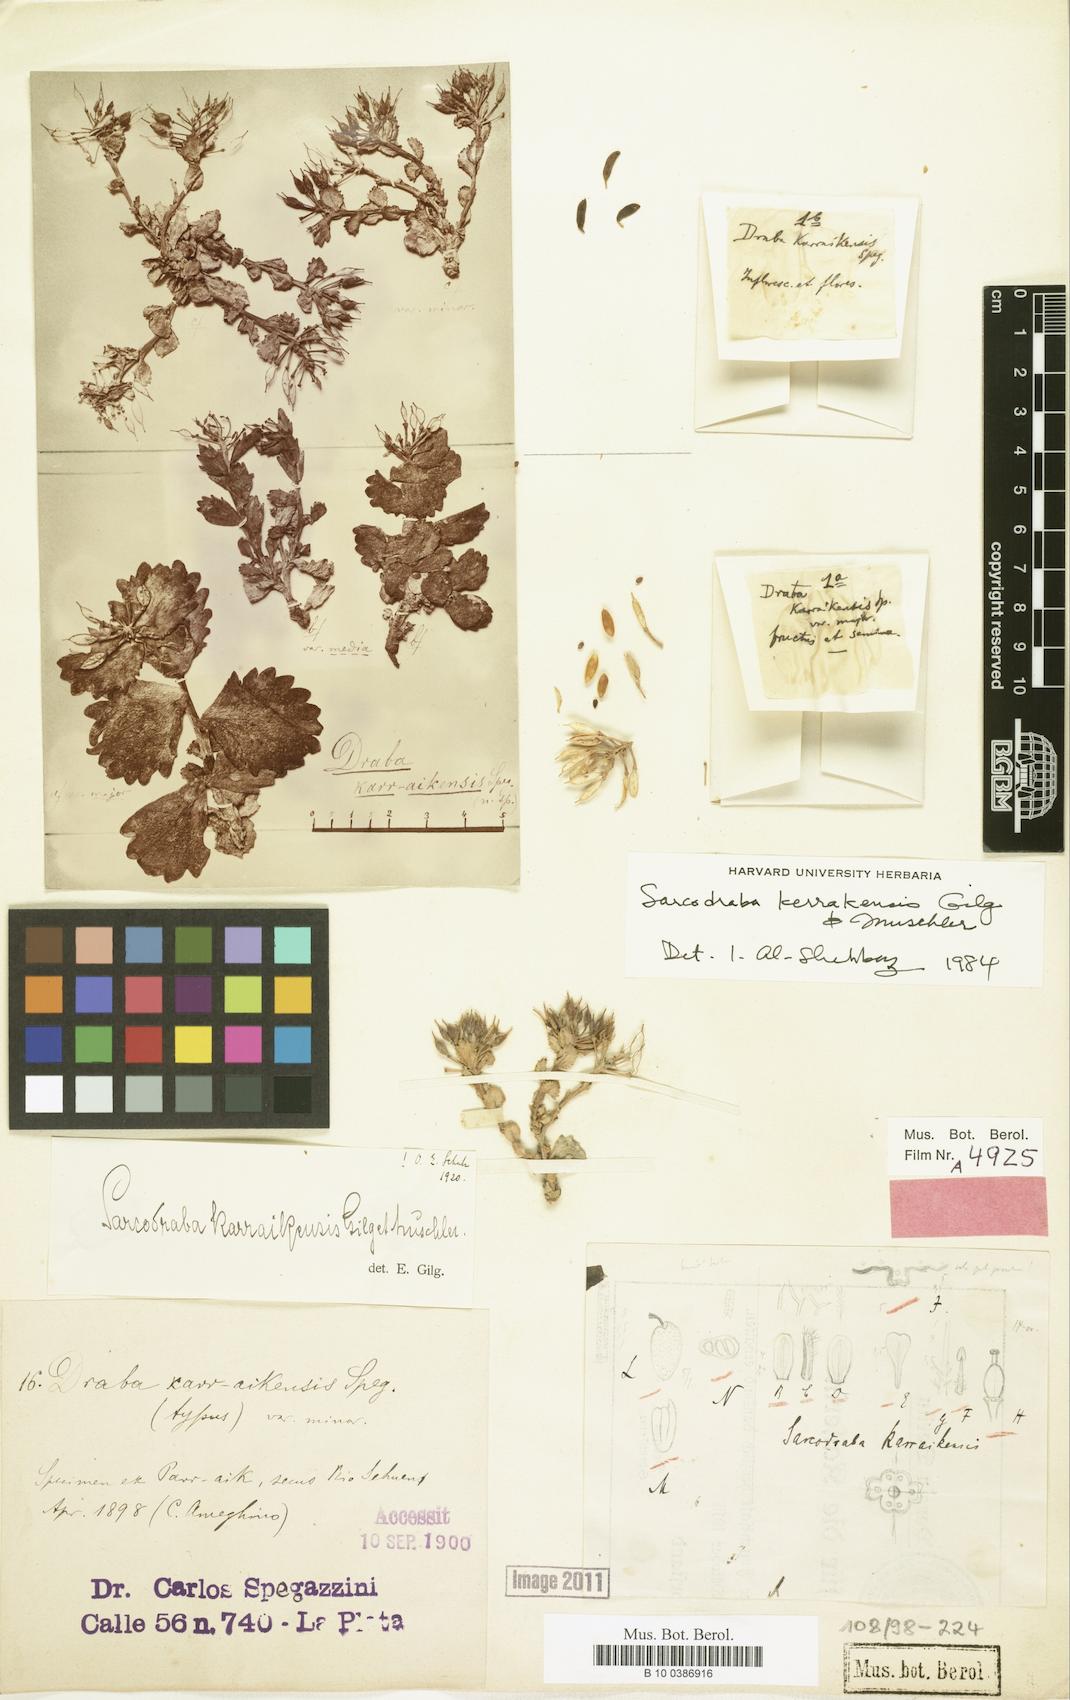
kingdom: Plantae
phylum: Tracheophyta
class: Magnoliopsida
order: Brassicales
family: Brassicaceae
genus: Sarcodraba
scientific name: Sarcodraba karraikensis
